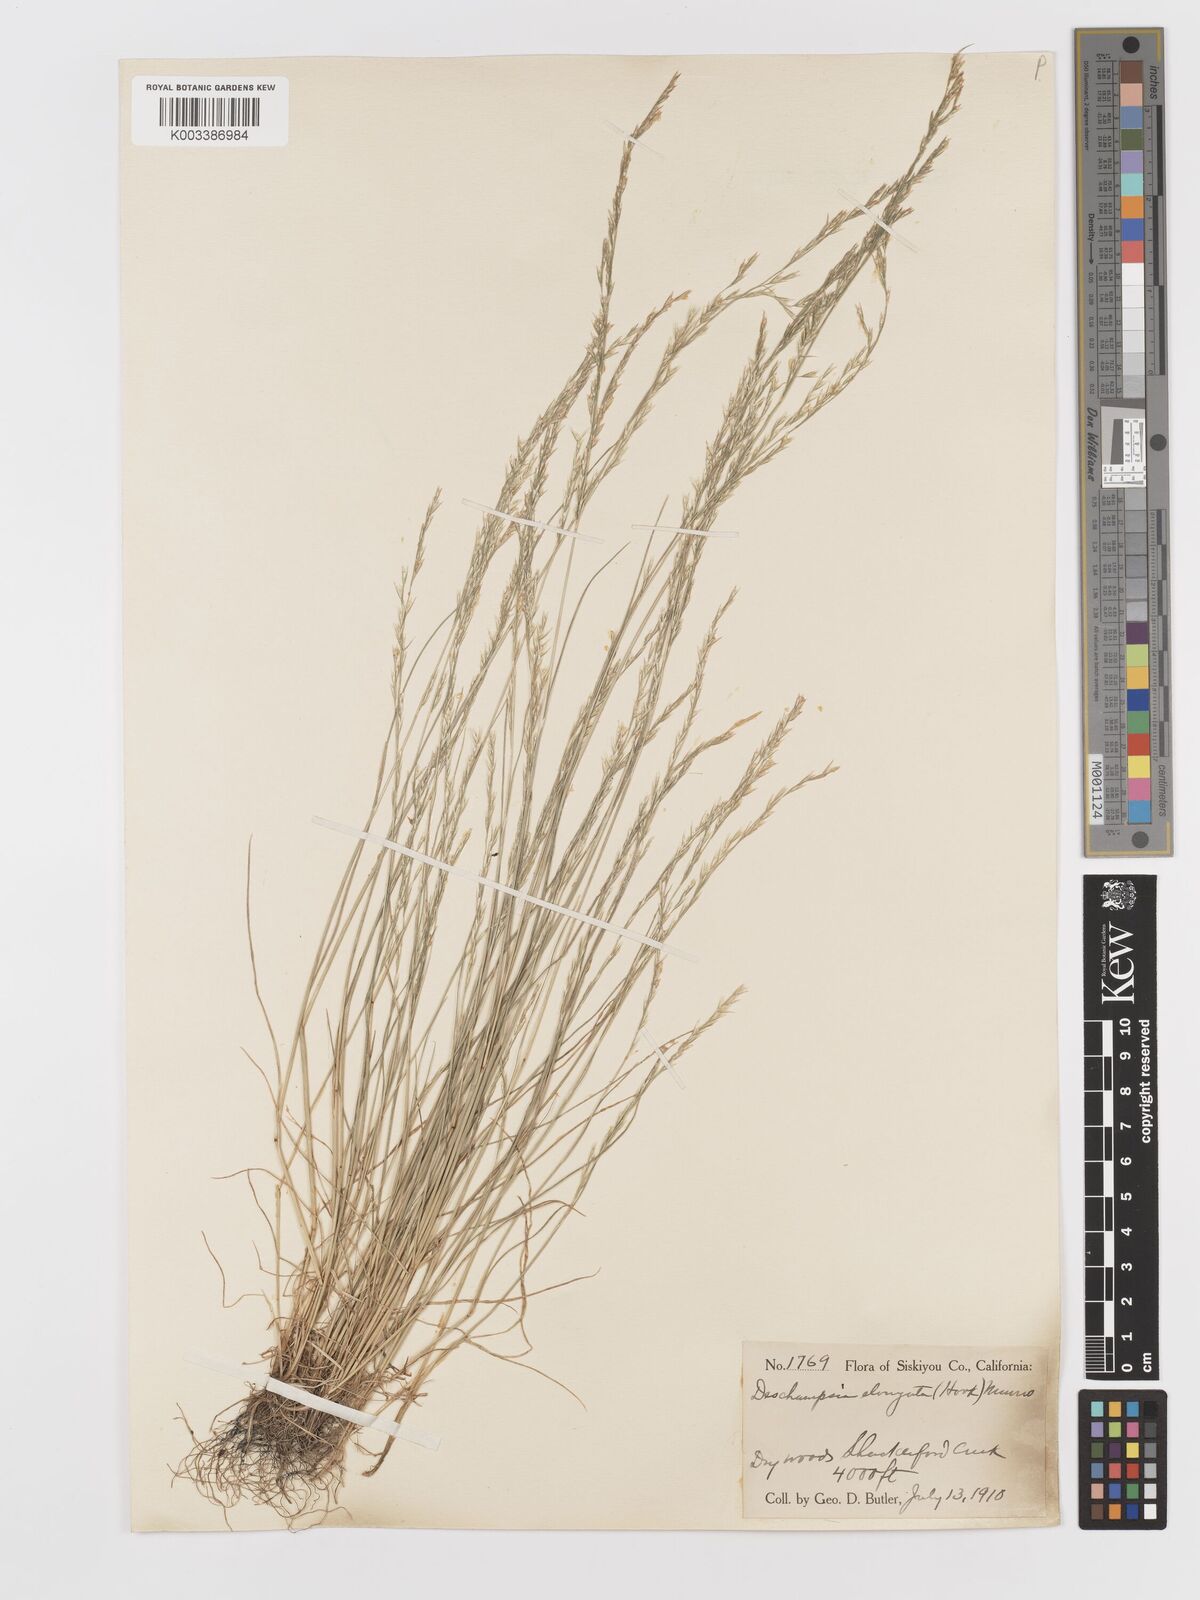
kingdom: Plantae
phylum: Tracheophyta
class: Liliopsida
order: Poales
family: Poaceae
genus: Deschampsia
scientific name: Deschampsia elongata
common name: Slender hairgrass
